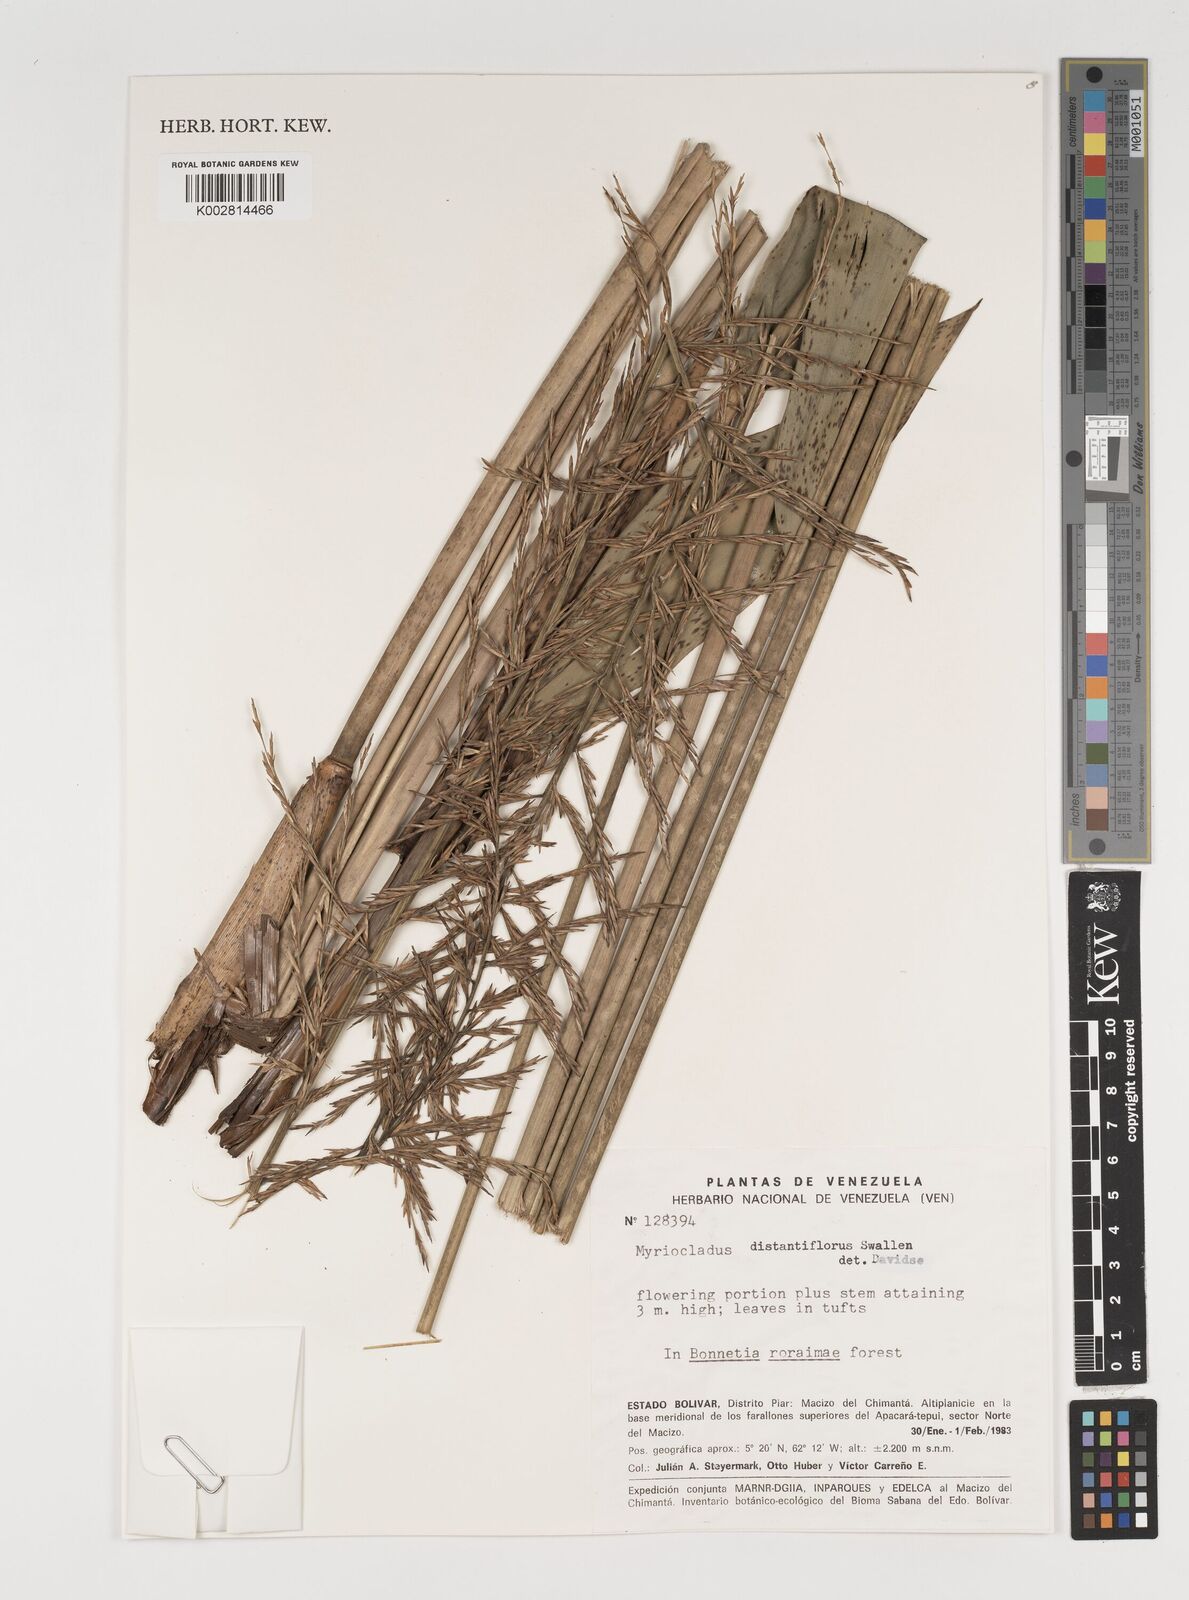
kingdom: Plantae
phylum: Tracheophyta
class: Liliopsida
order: Poales
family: Poaceae
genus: Myriocladus
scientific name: Myriocladus distantiflorus
